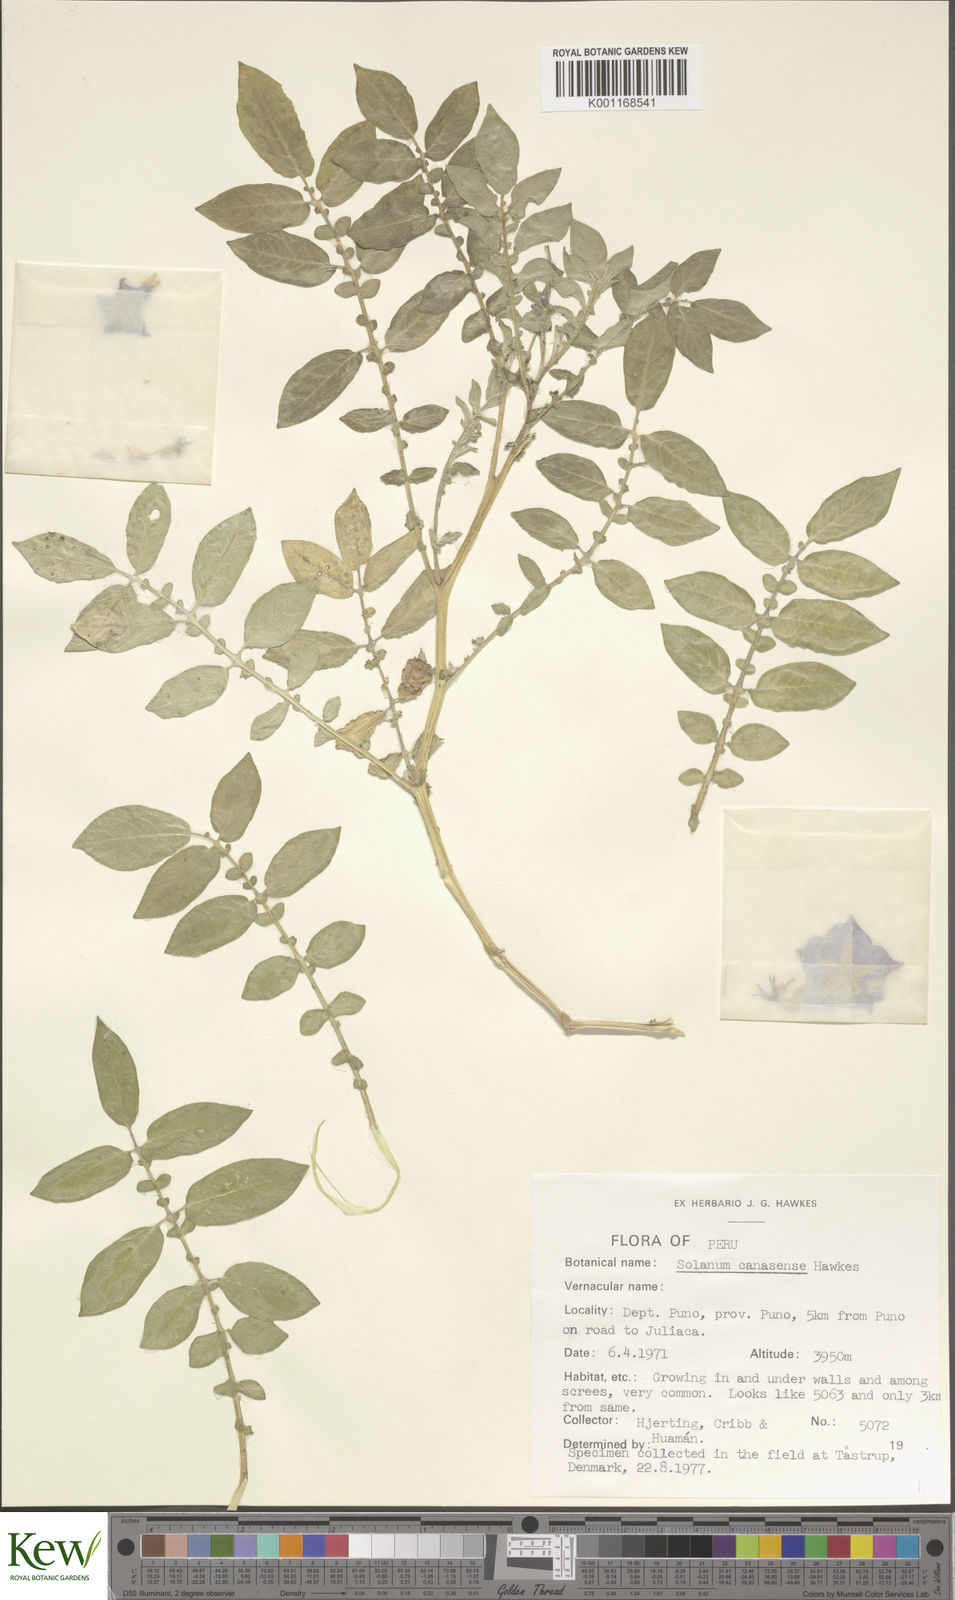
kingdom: Plantae
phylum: Tracheophyta
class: Magnoliopsida
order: Solanales
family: Solanaceae
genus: Solanum
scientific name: Solanum candolleanum
